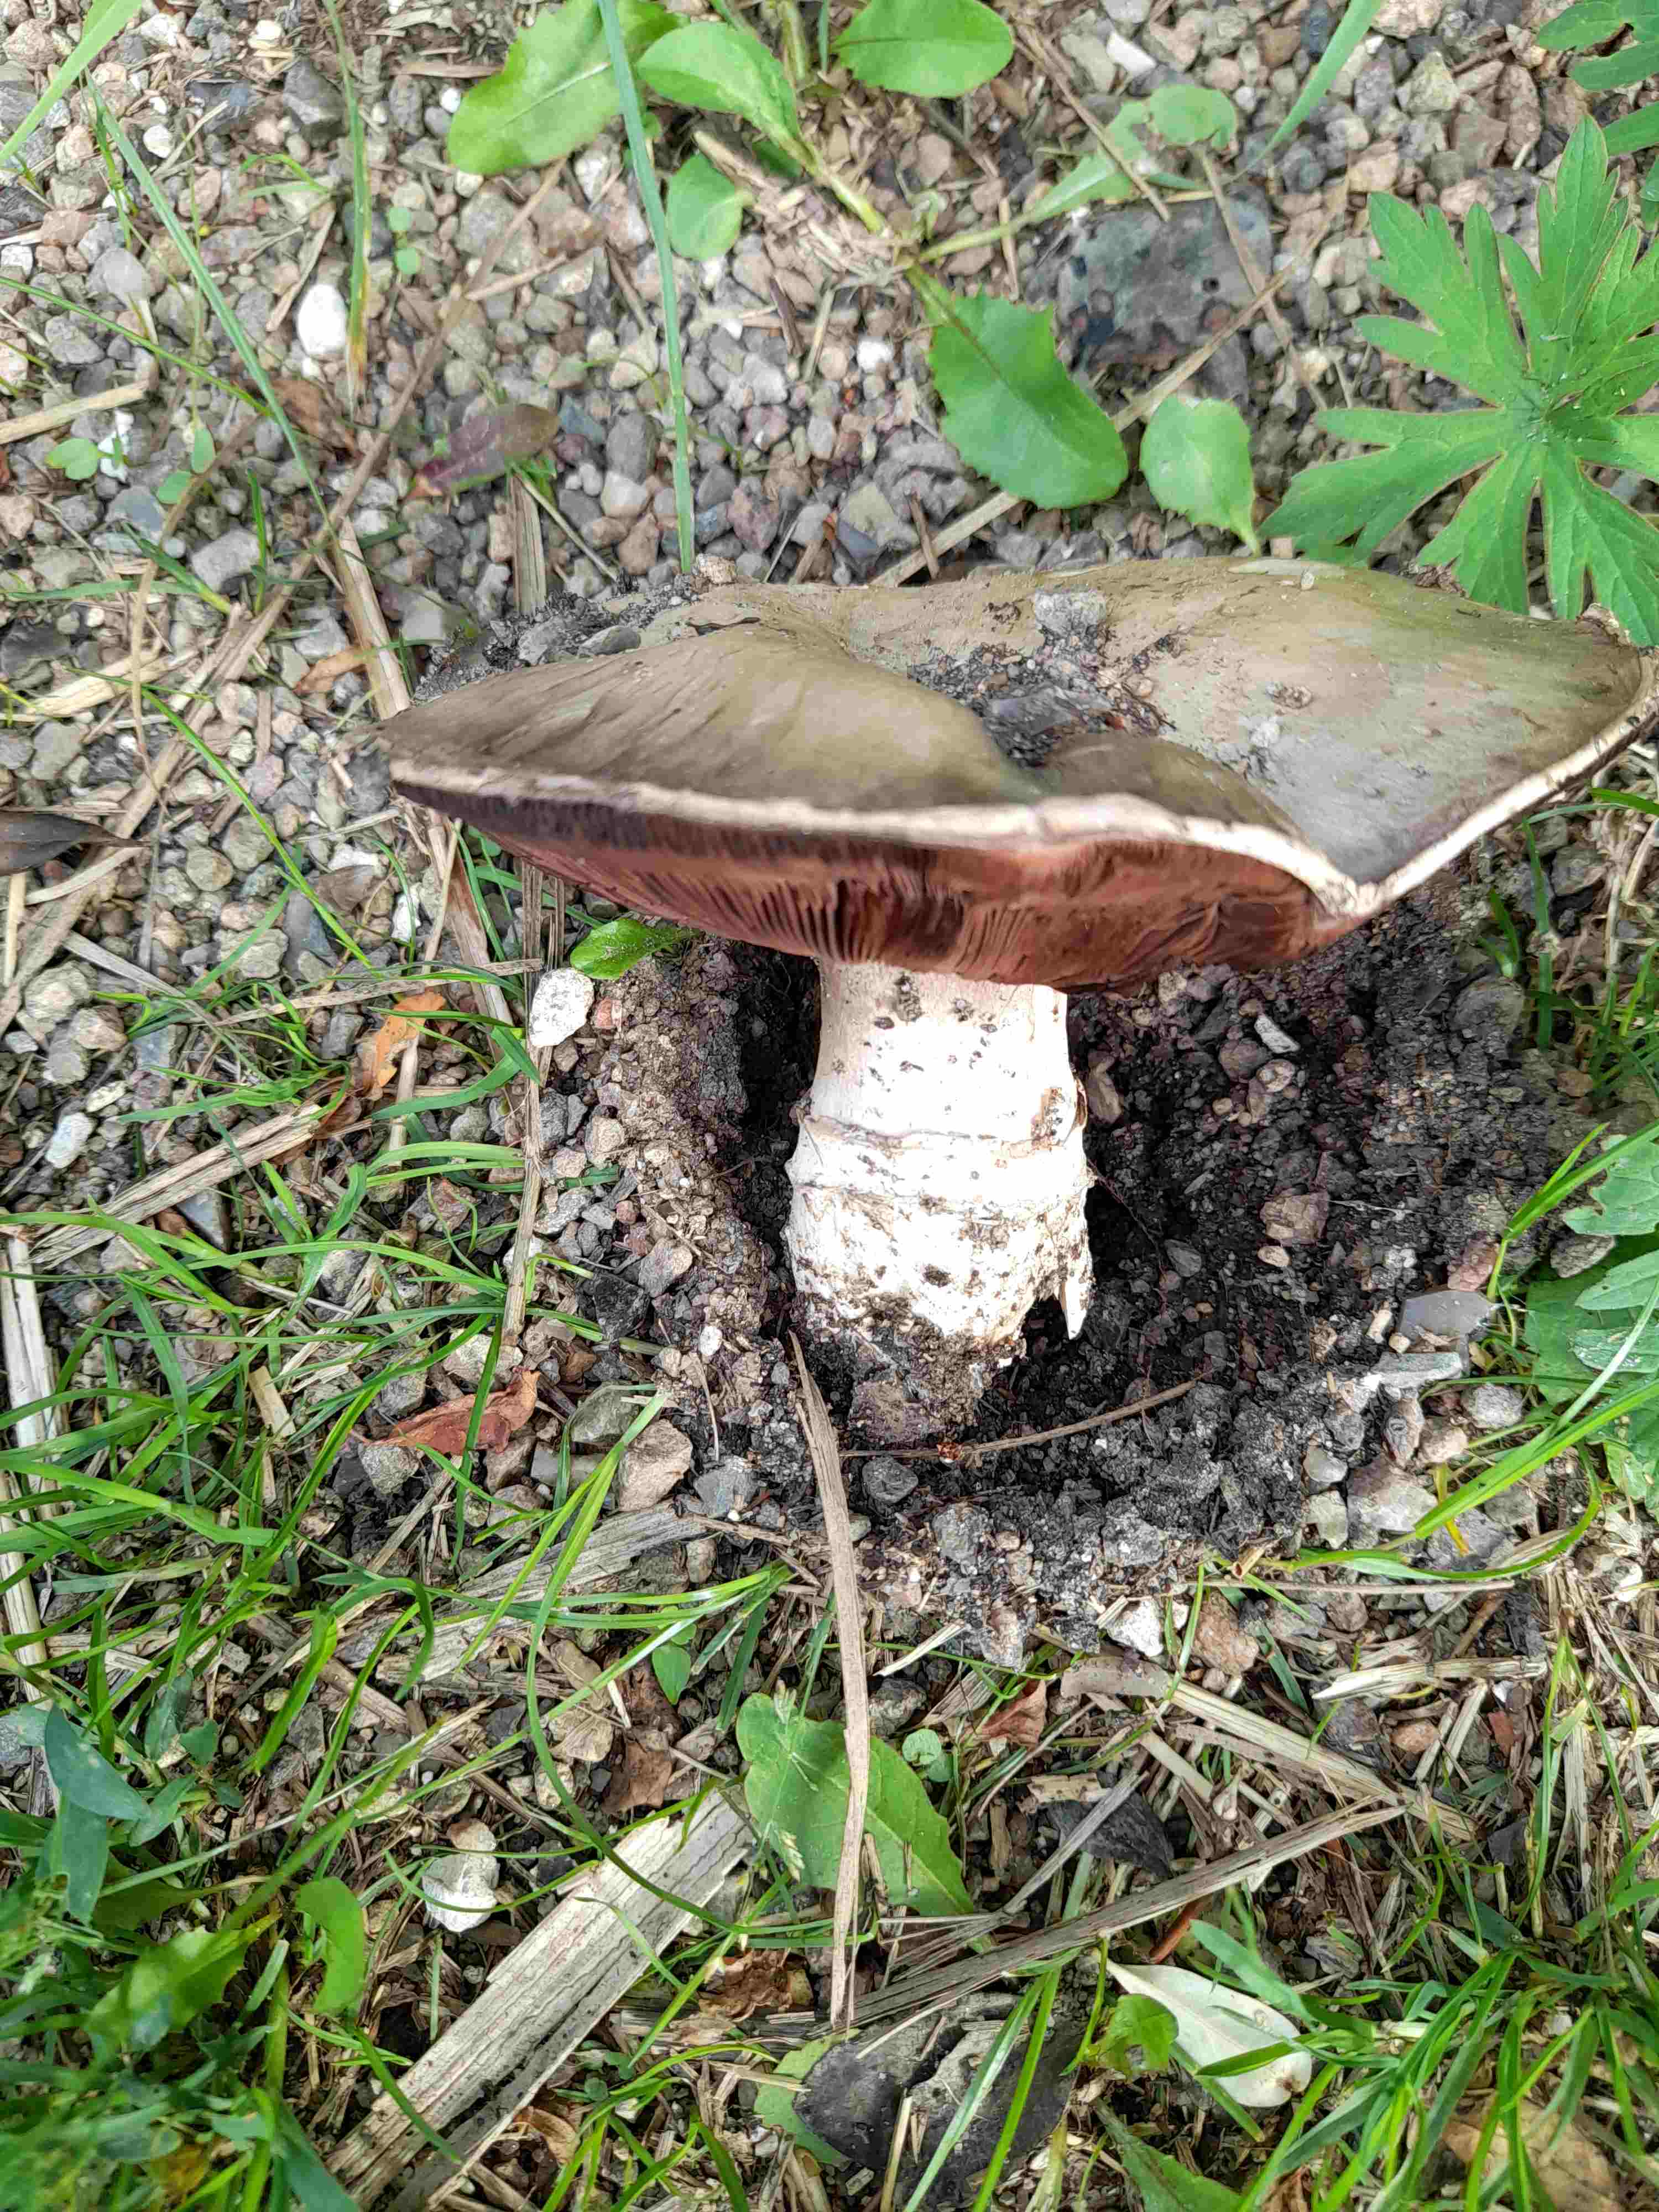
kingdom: Fungi
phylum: Basidiomycota
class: Agaricomycetes
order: Agaricales
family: Agaricaceae
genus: Agaricus
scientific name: Agaricus bitorquis
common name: vej-champignon
